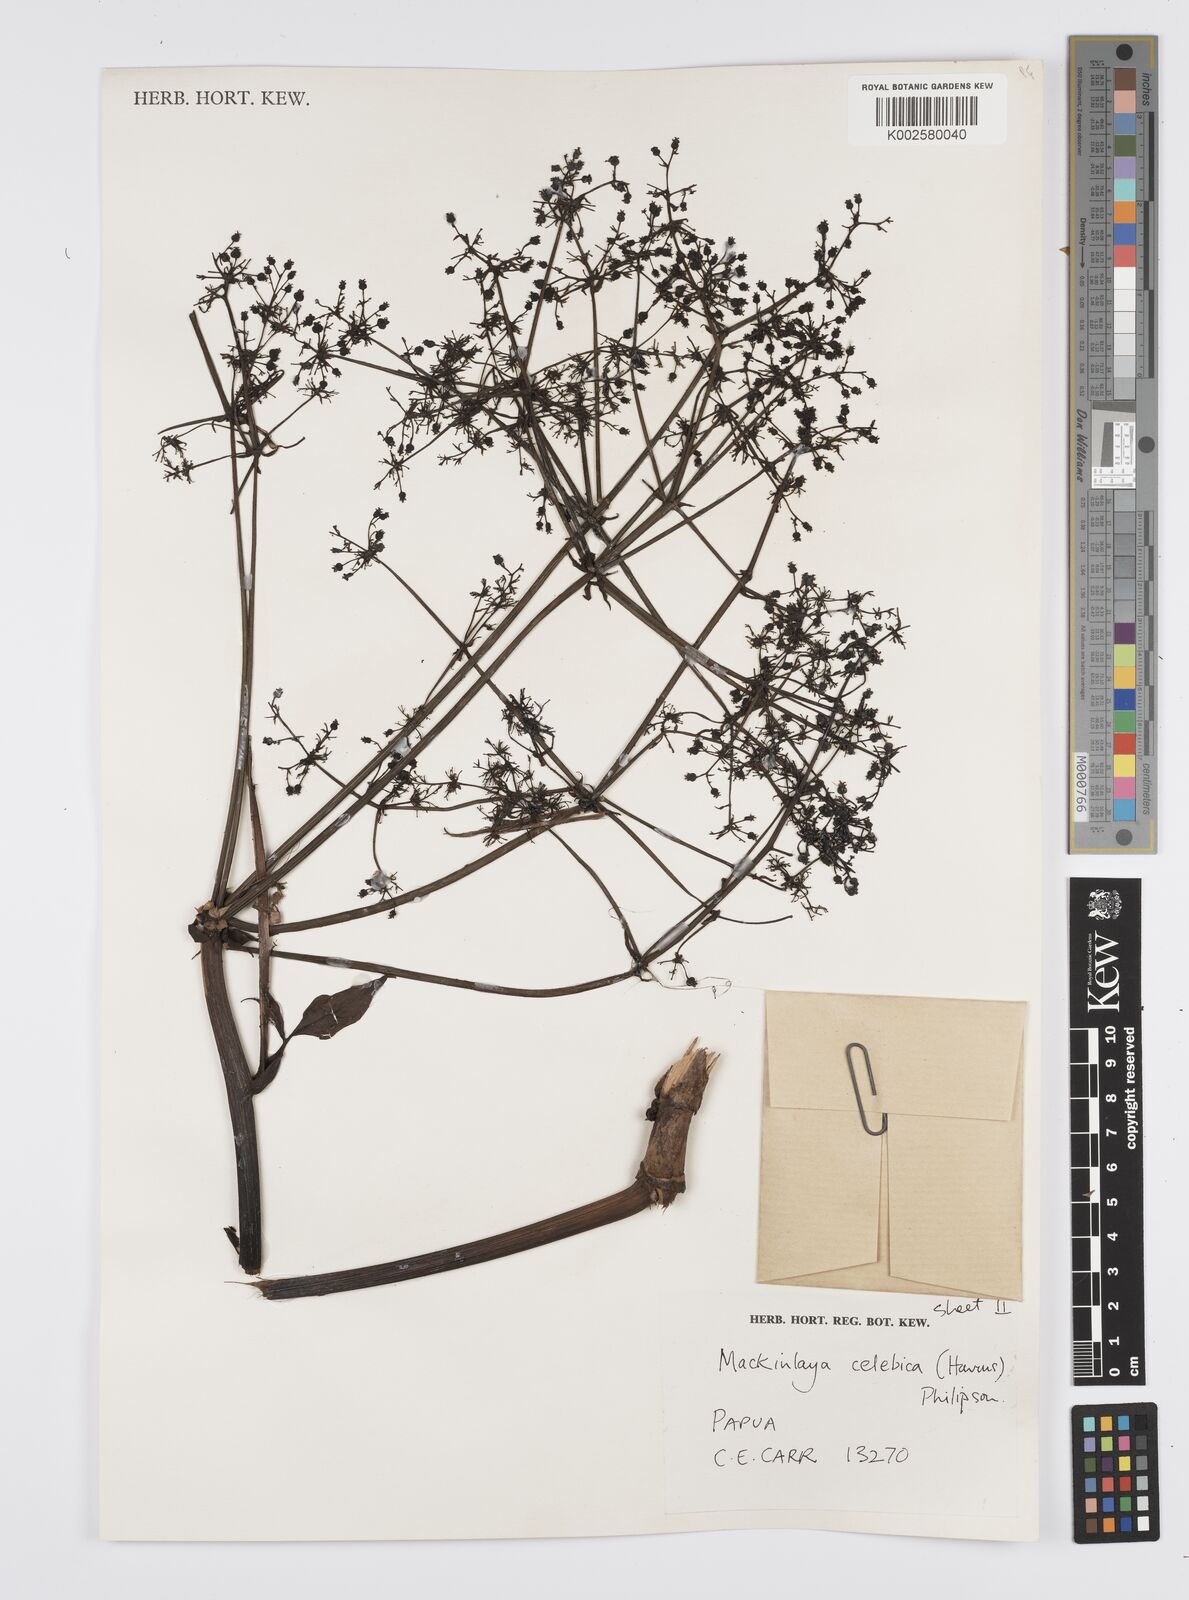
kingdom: Plantae
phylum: Tracheophyta
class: Magnoliopsida
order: Apiales
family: Apiaceae
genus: Mackinlaya
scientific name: Mackinlaya celebica
